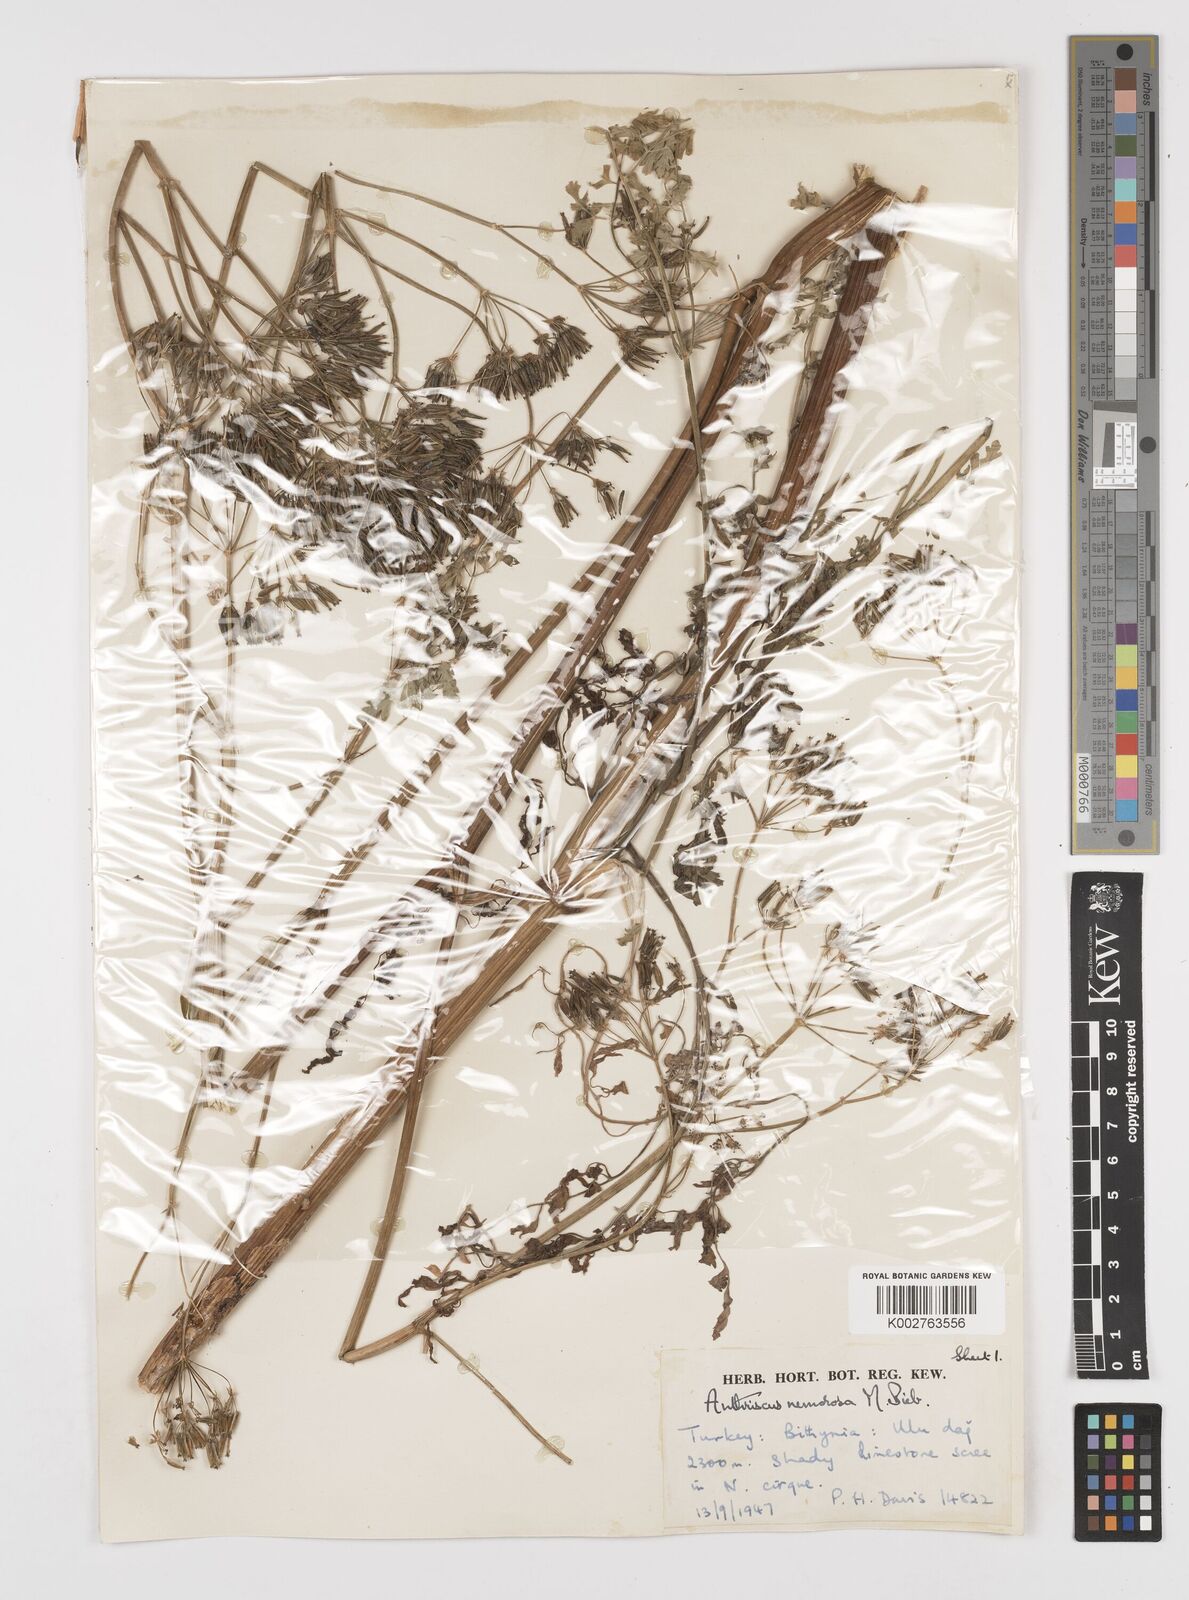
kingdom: Plantae
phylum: Tracheophyta
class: Magnoliopsida
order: Apiales
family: Apiaceae
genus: Anthriscus
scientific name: Anthriscus sylvestris
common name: Cow parsley
